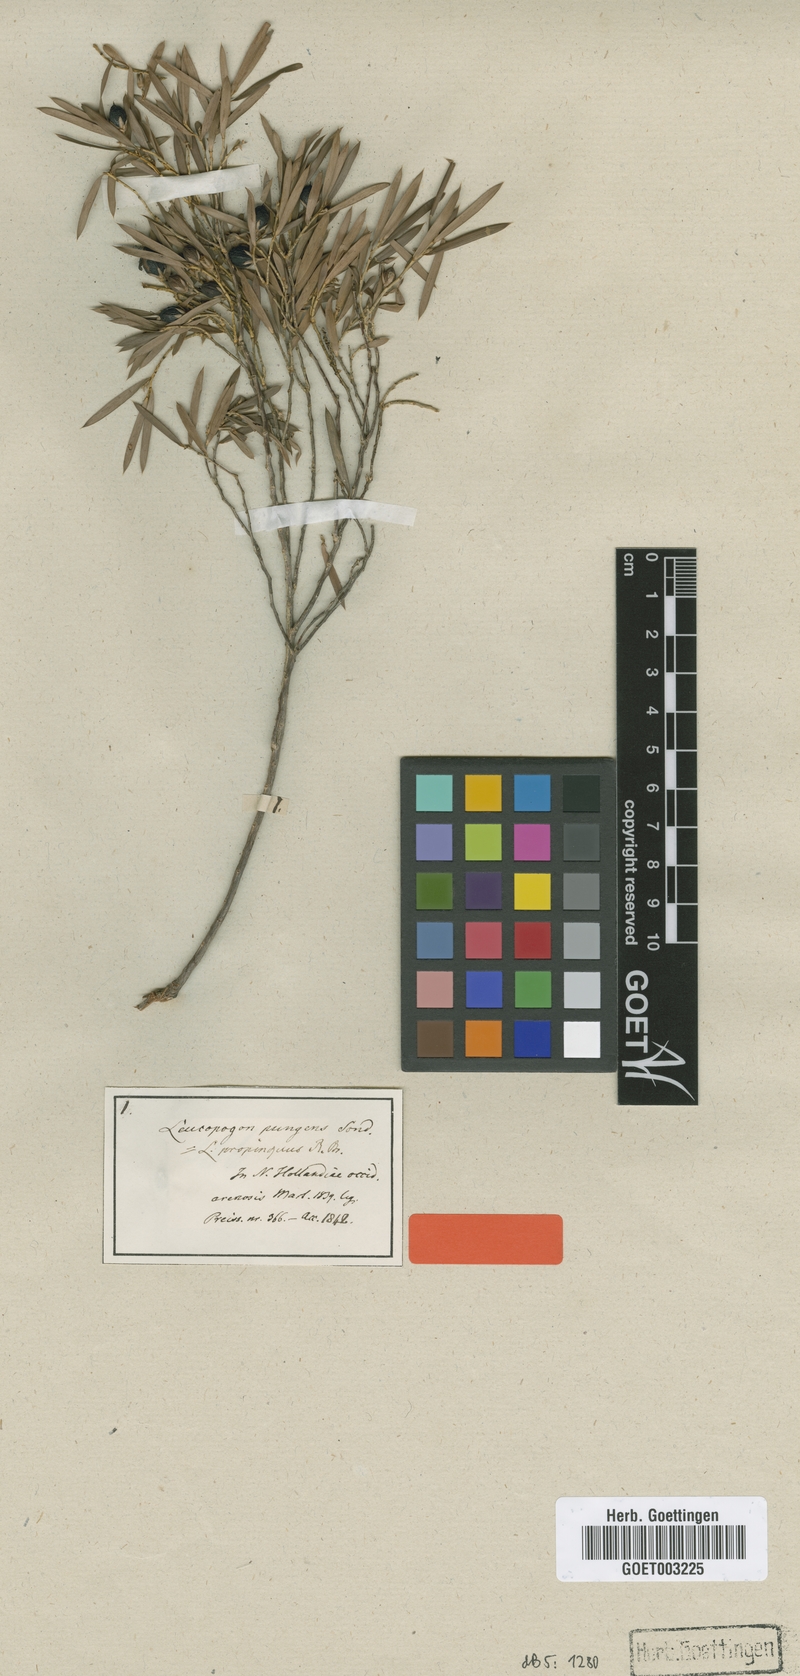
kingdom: Plantae
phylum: Tracheophyta
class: Magnoliopsida
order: Ericales
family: Ericaceae
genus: Styphelia
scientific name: Styphelia propinqua
